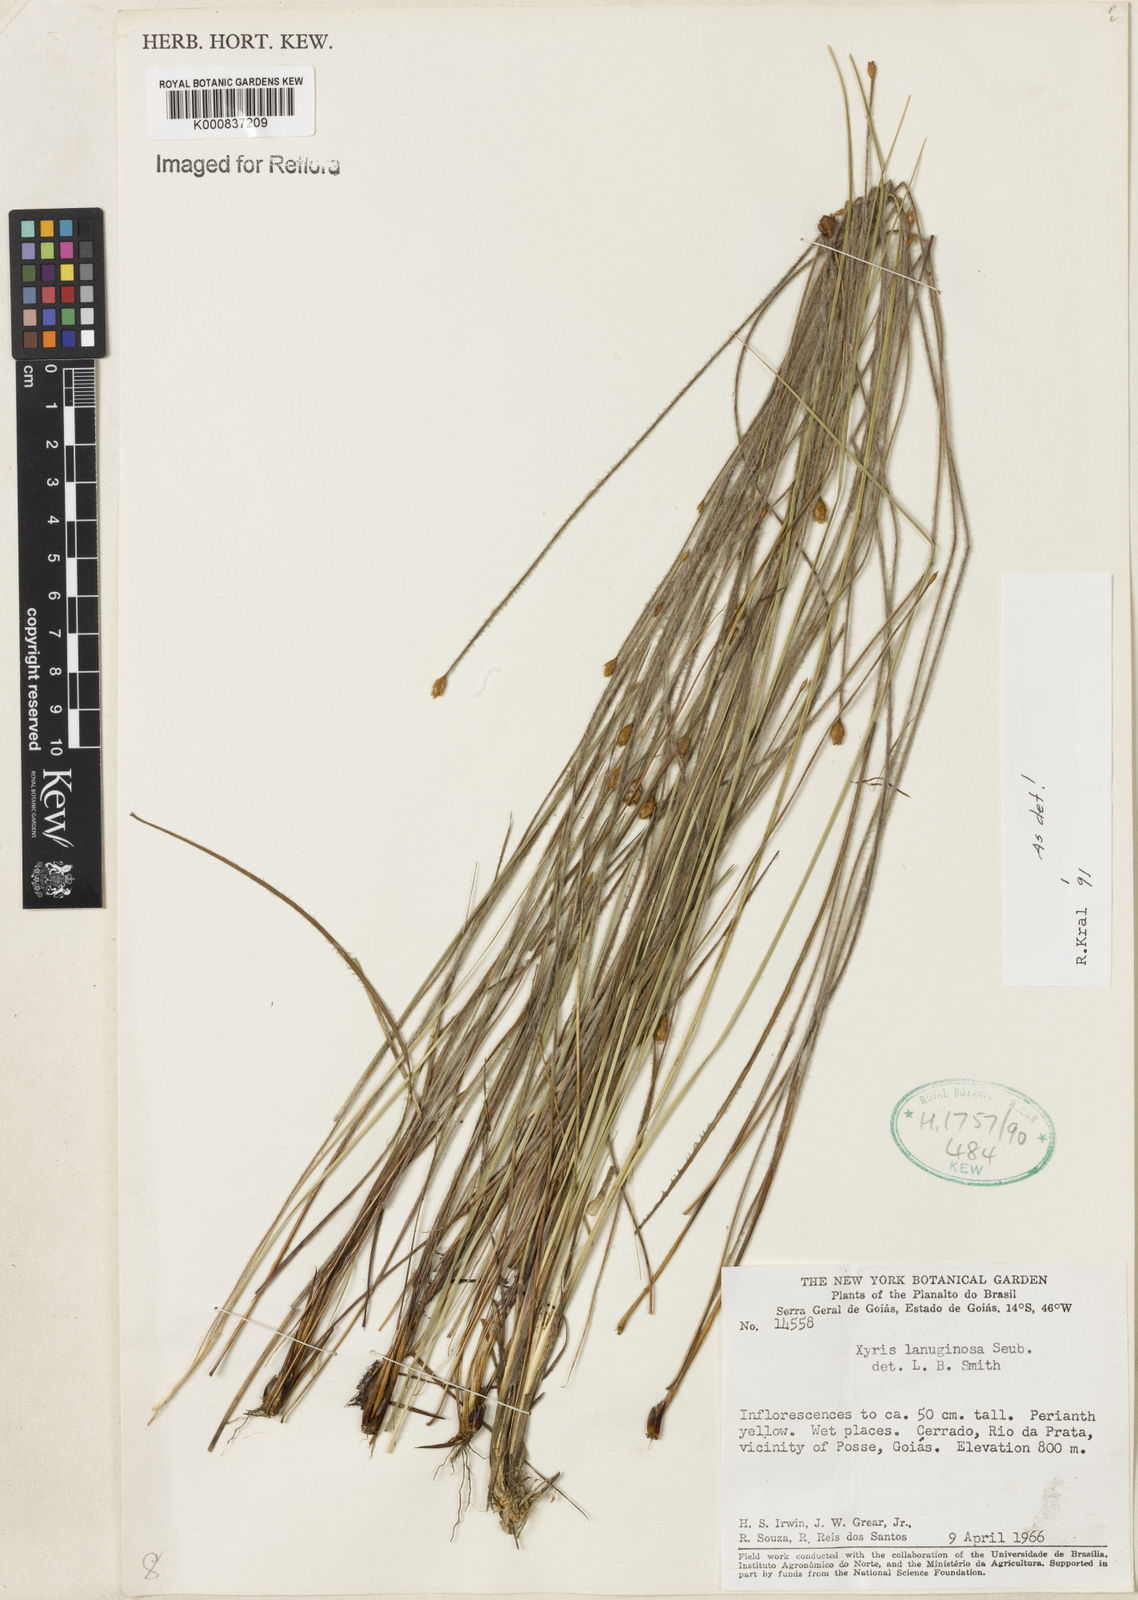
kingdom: Plantae
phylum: Tracheophyta
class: Liliopsida
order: Poales
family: Xyridaceae
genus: Xyris
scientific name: Xyris lanuginosa
